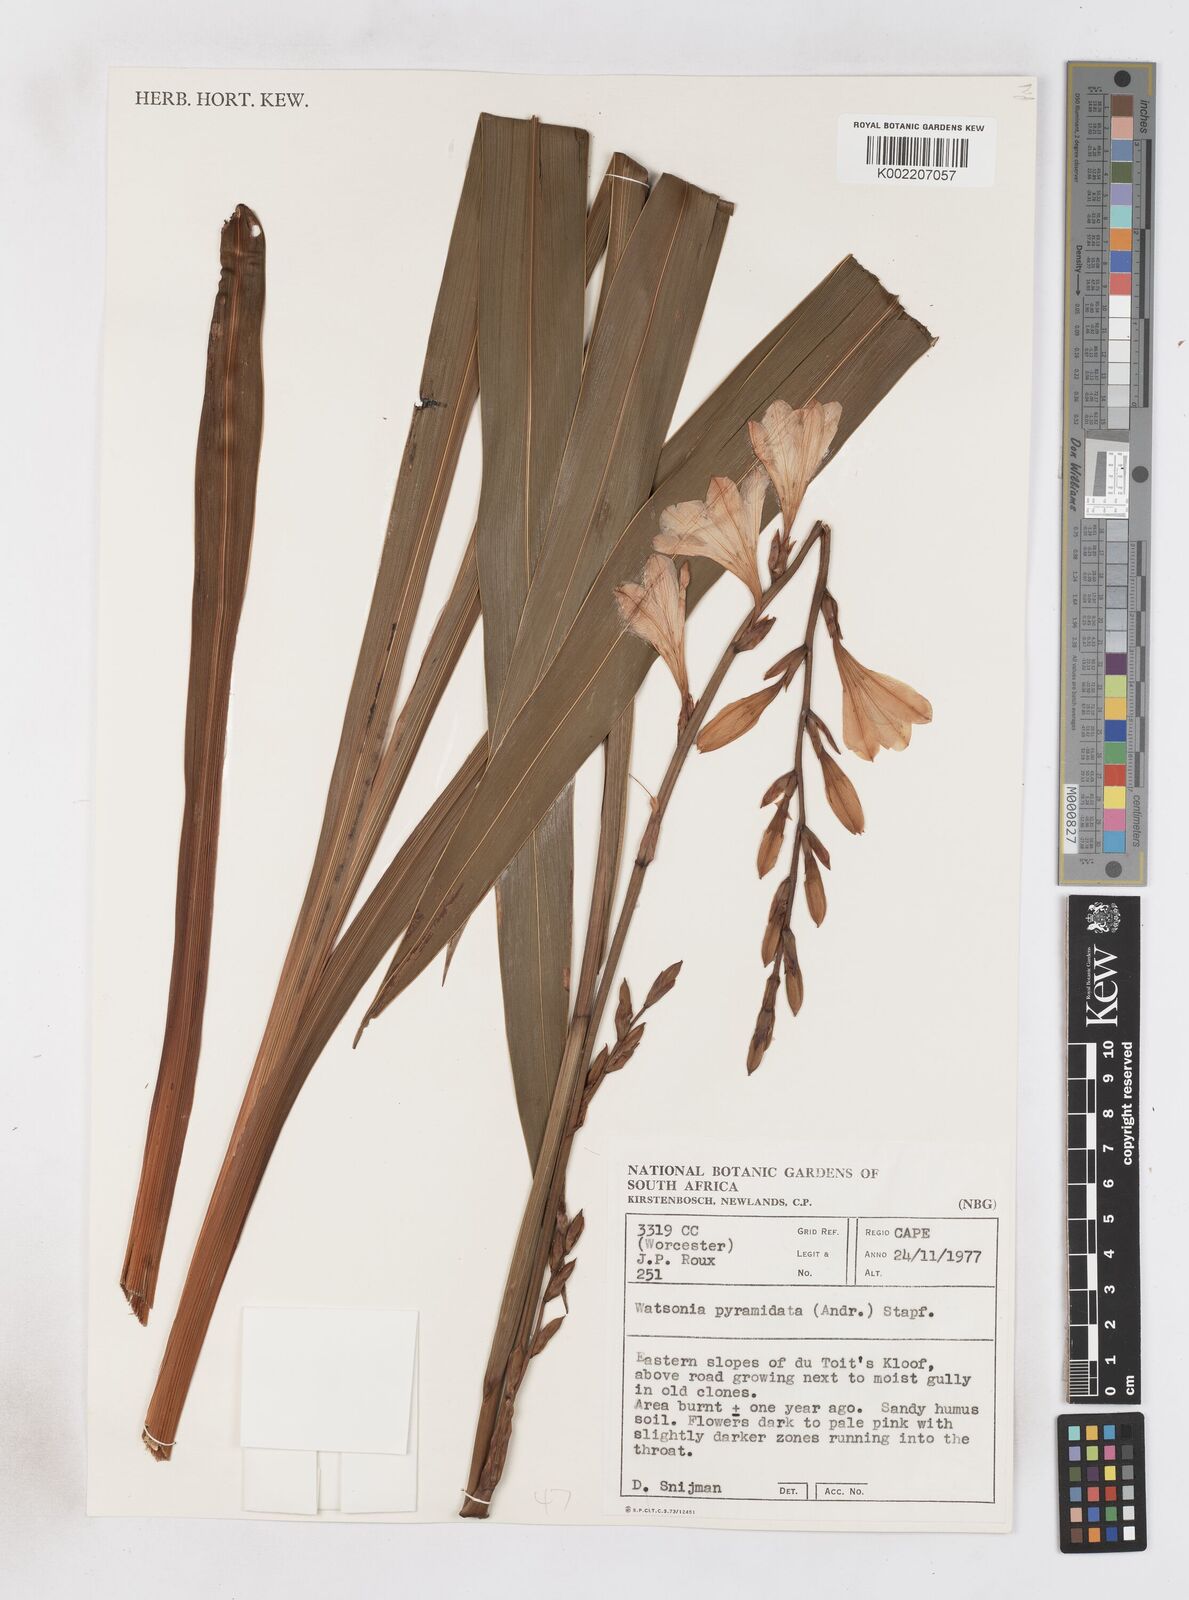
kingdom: Plantae
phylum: Tracheophyta
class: Liliopsida
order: Asparagales
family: Iridaceae
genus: Watsonia
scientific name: Watsonia borbonica
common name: Bugle-lily
